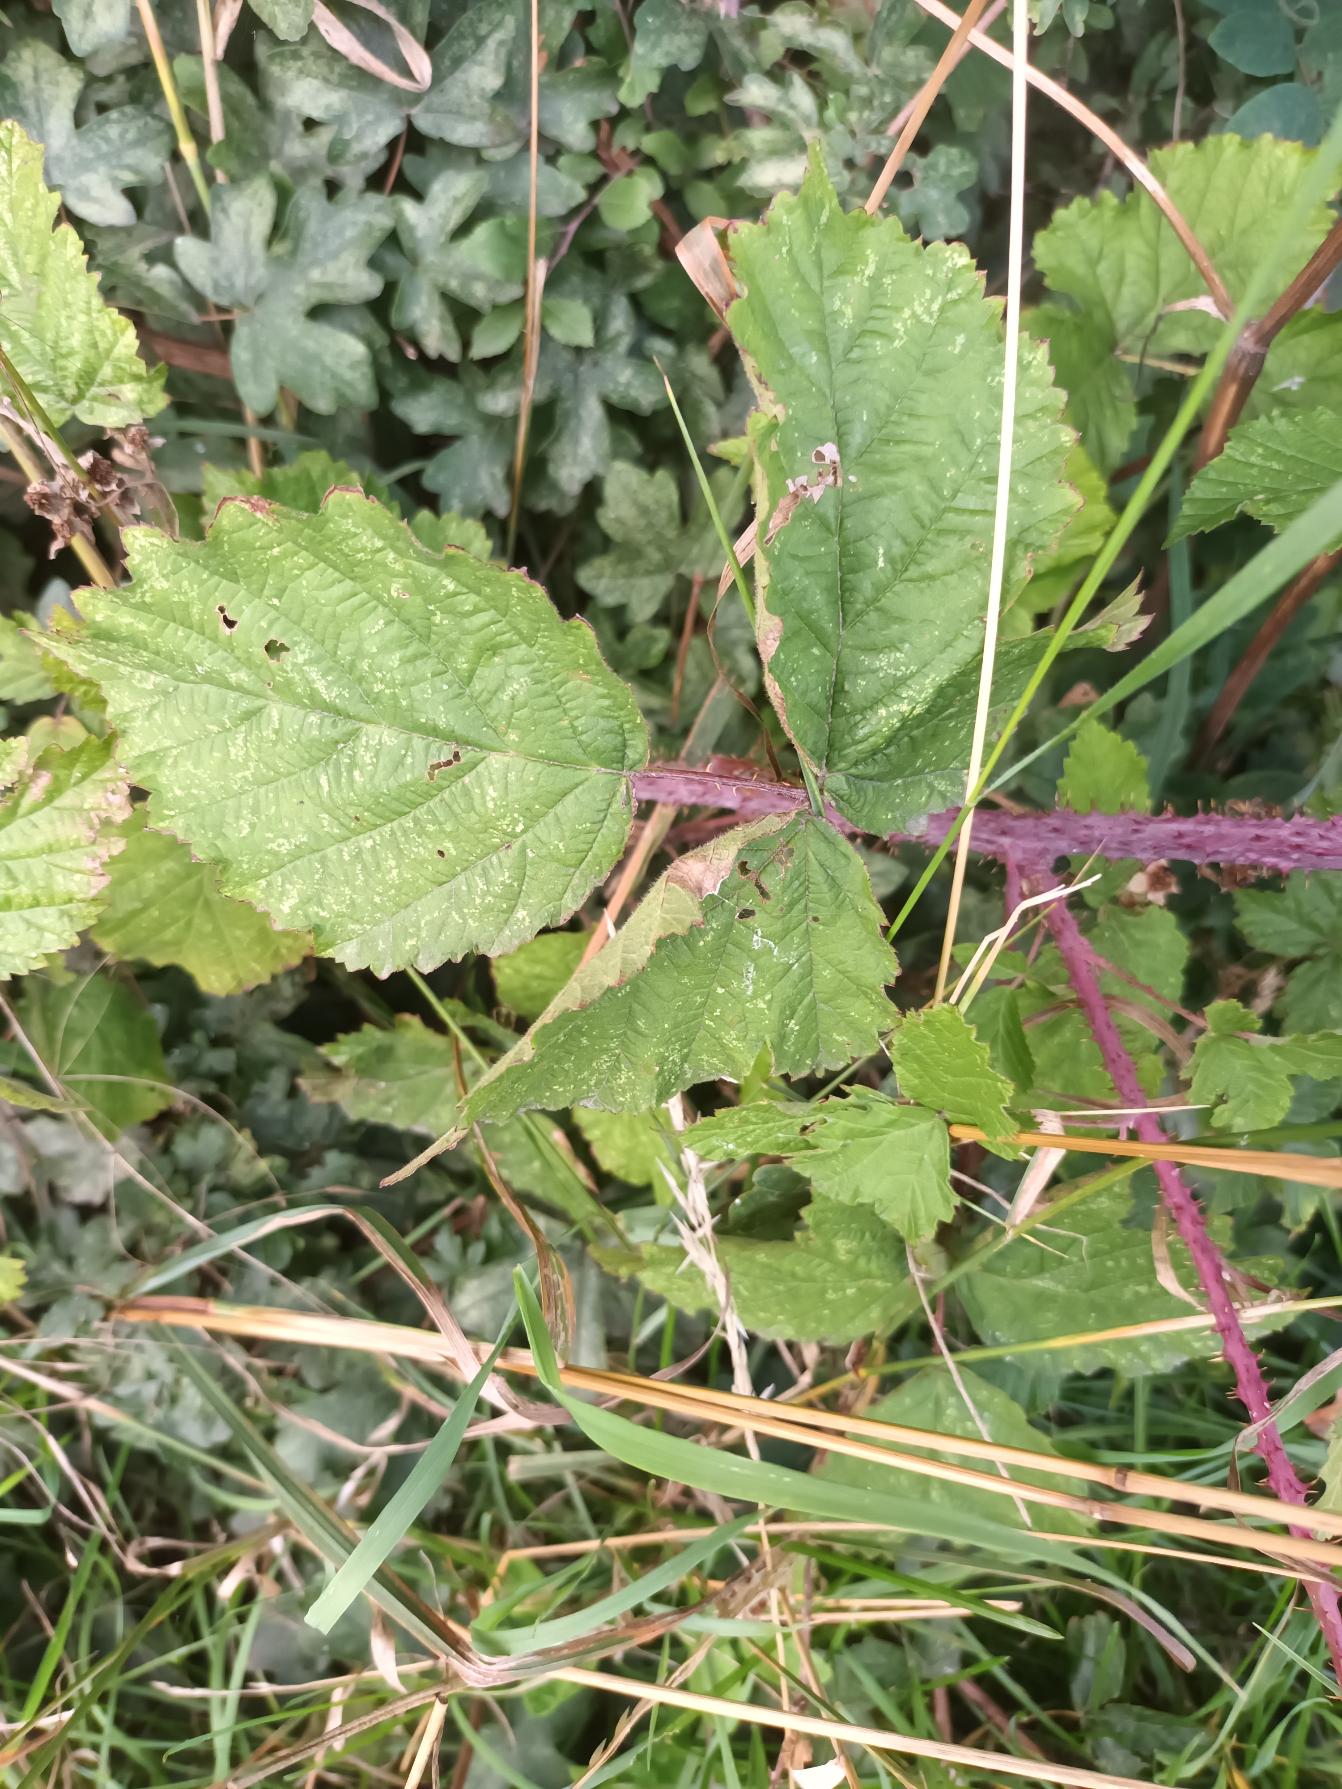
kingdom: Plantae
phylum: Tracheophyta
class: Magnoliopsida
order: Rosales
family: Rosaceae
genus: Rubus
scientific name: Rubus glauciformis
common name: Blådugget hasselbrombær
